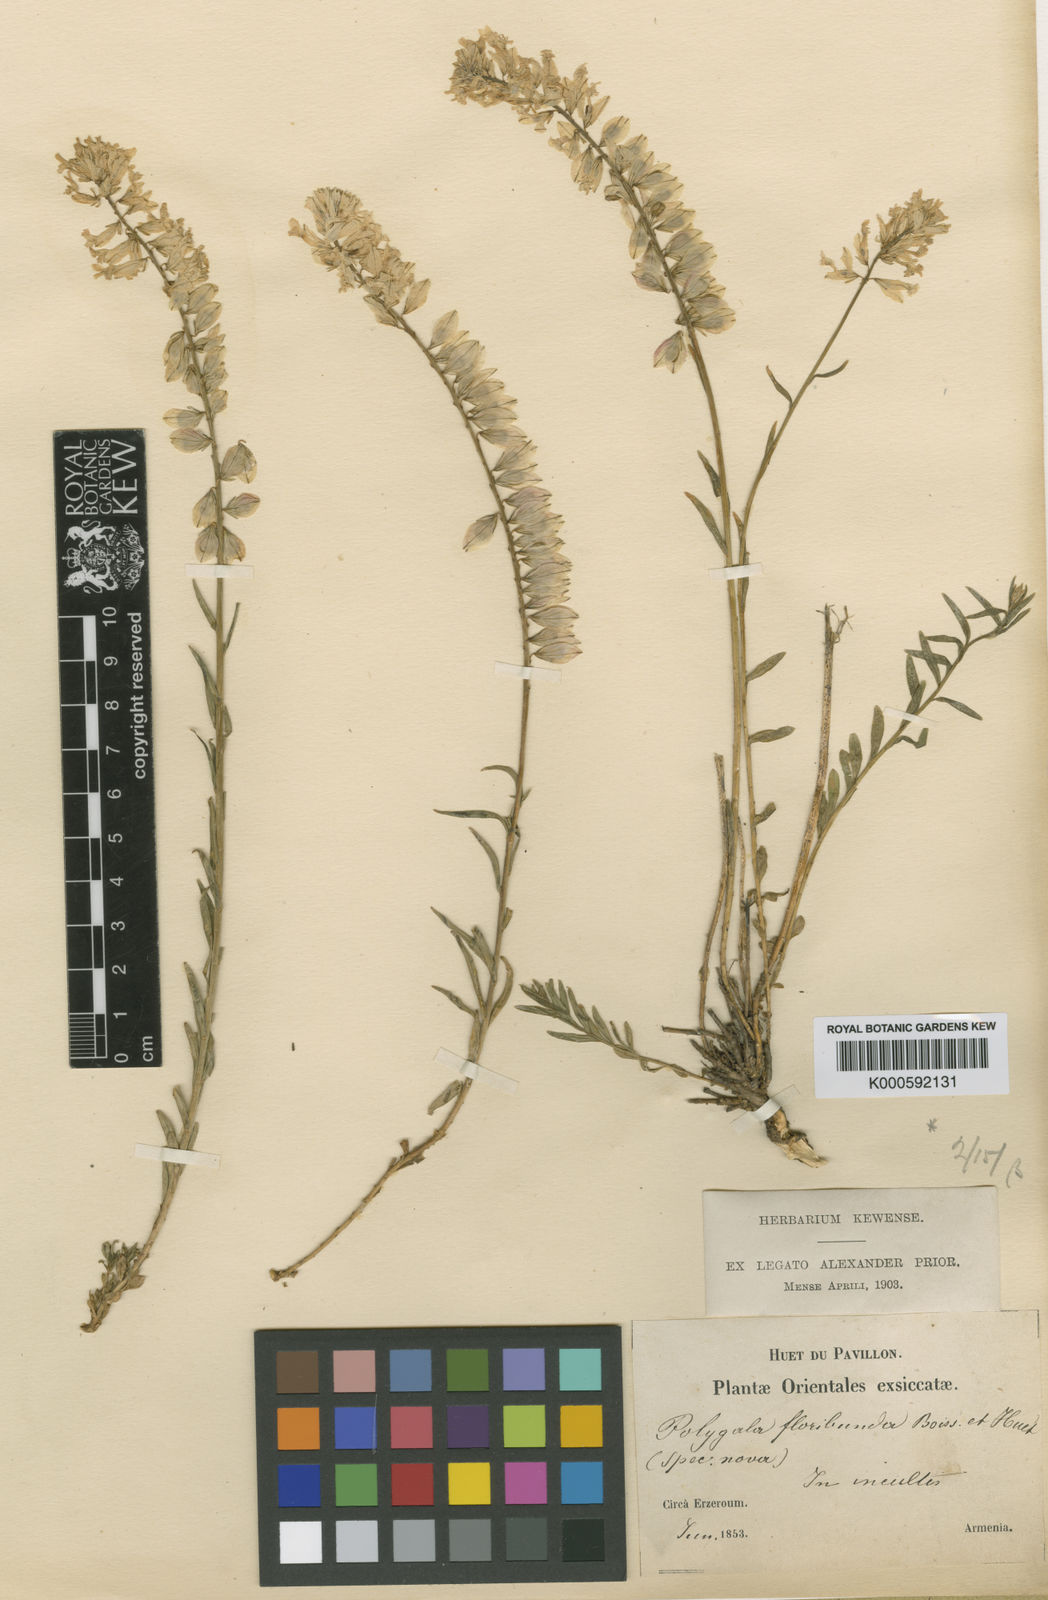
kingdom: Plantae
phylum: Tracheophyta
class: Magnoliopsida
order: Fabales
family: Polygalaceae
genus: Polygala
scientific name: Polygala anatolica
